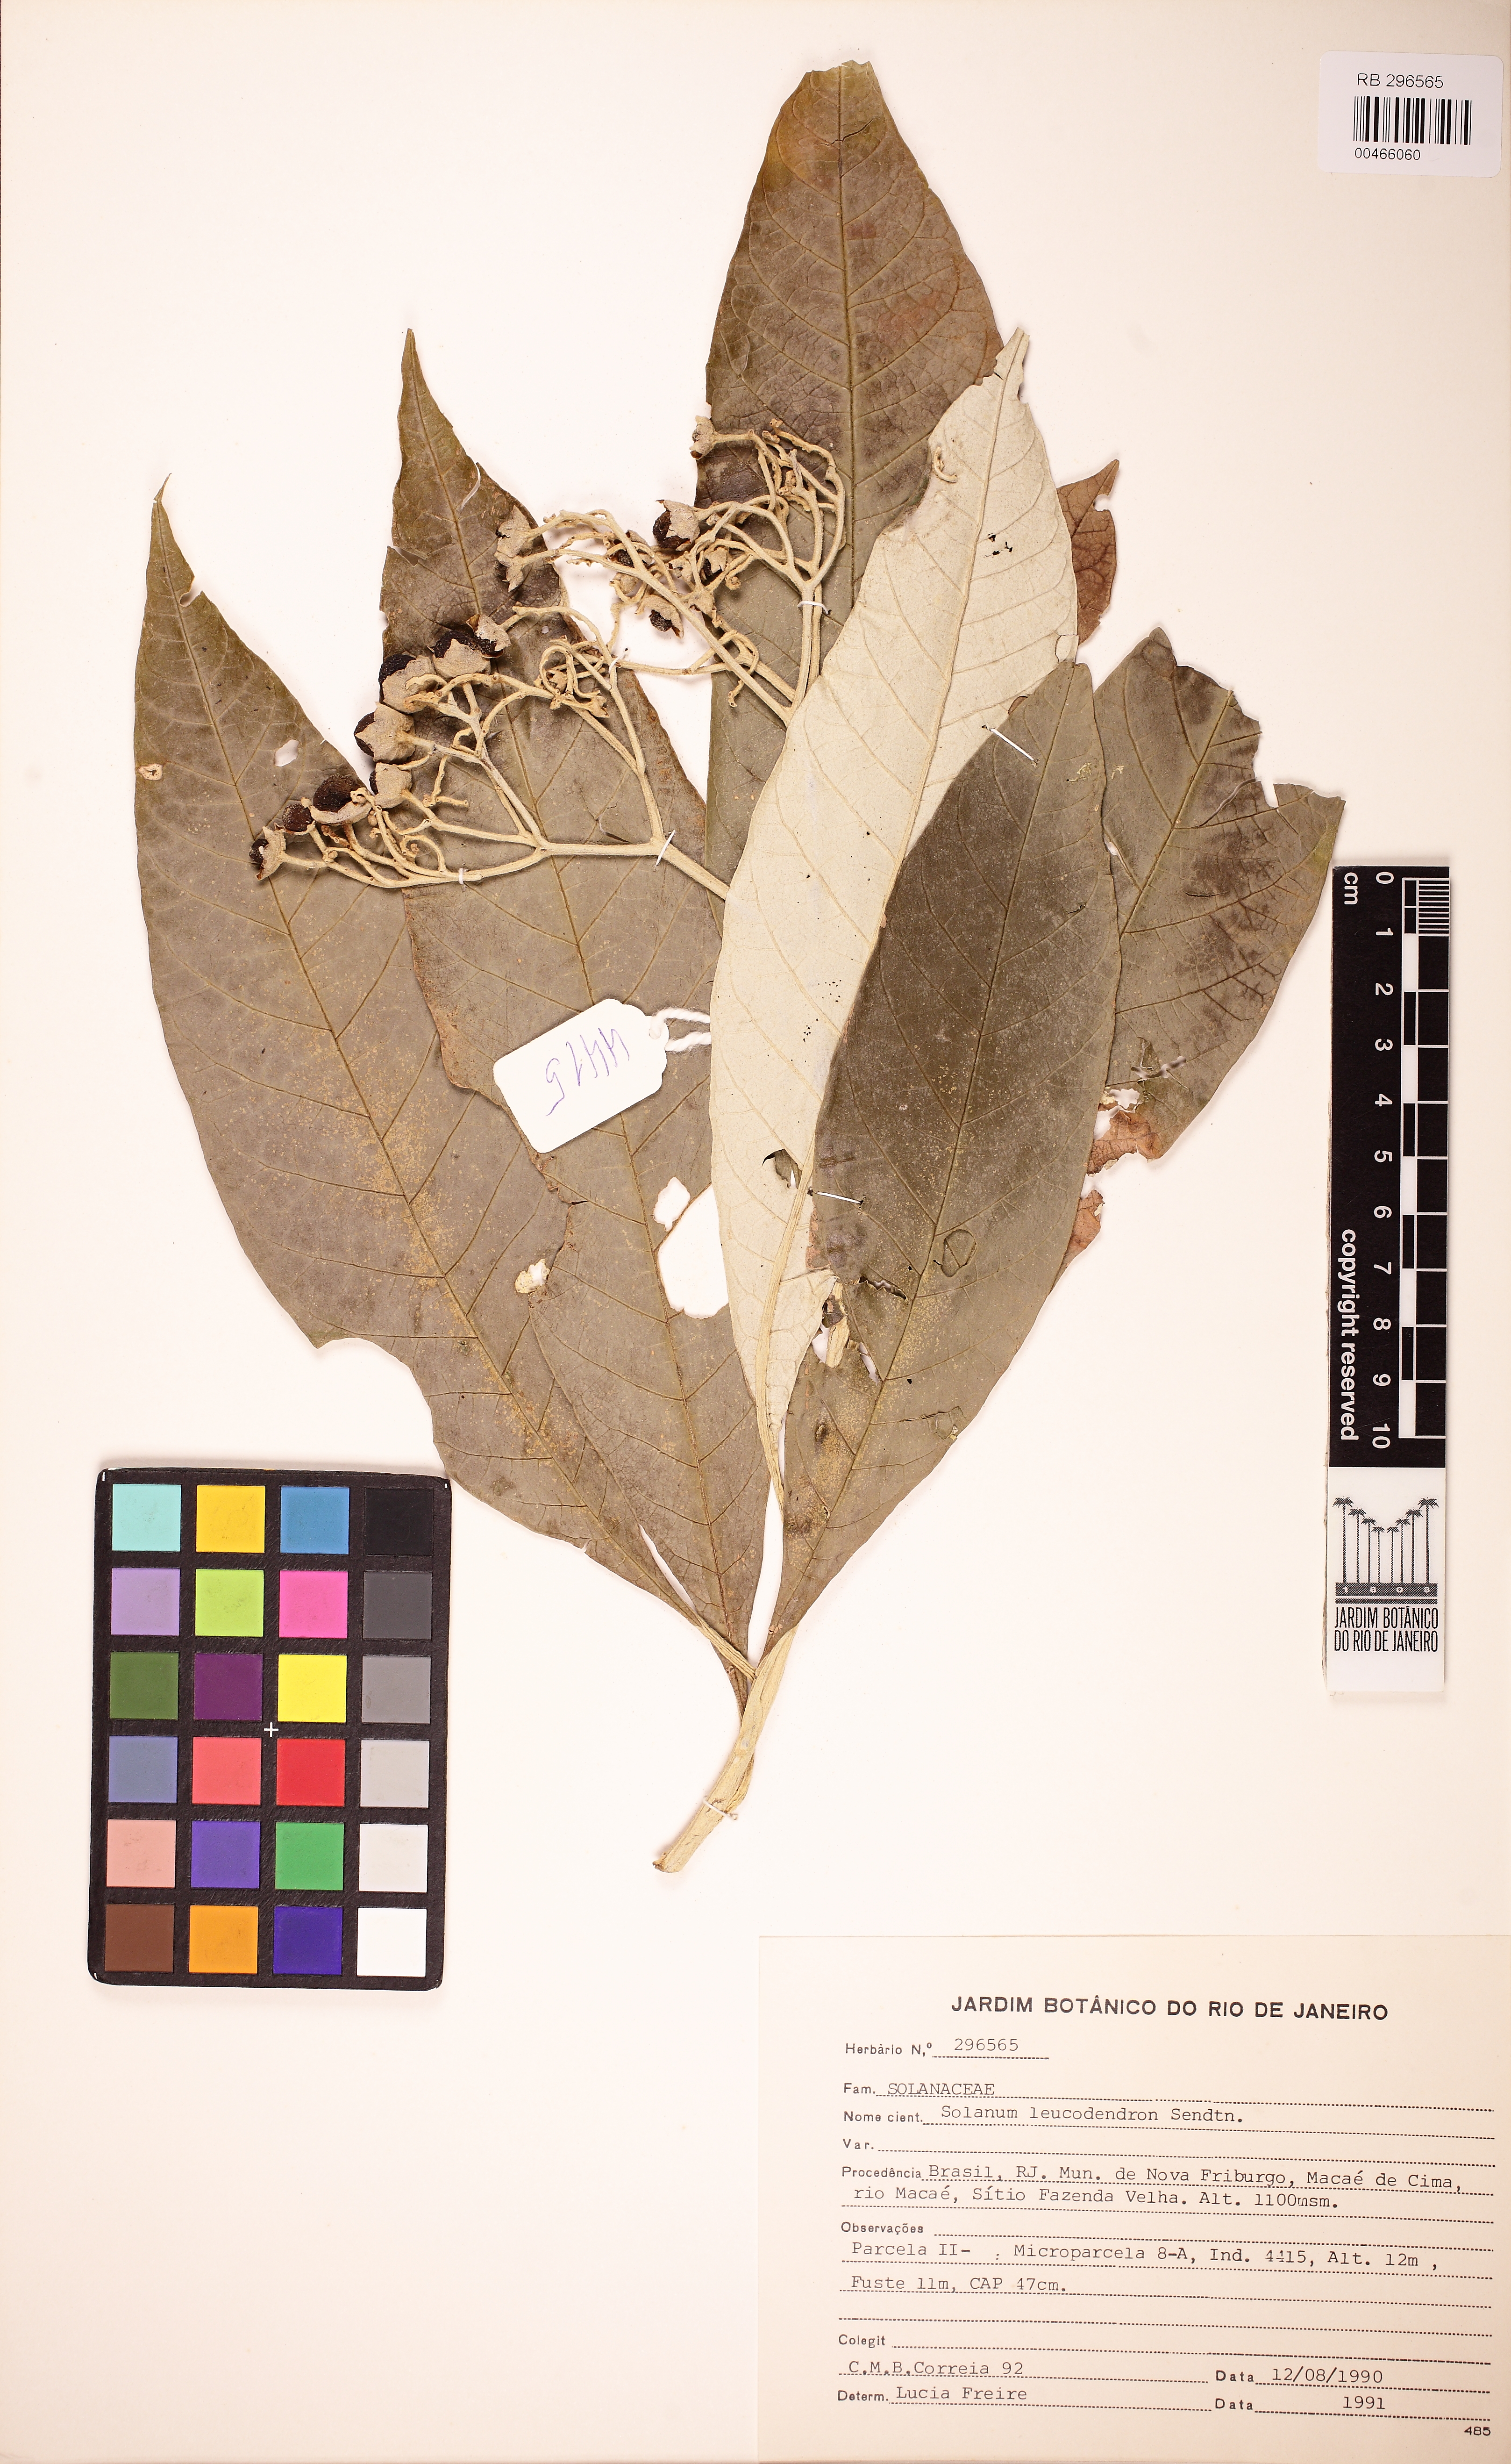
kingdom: Plantae
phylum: Tracheophyta
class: Magnoliopsida
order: Solanales
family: Solanaceae
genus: Solanum
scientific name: Solanum leucodendron
